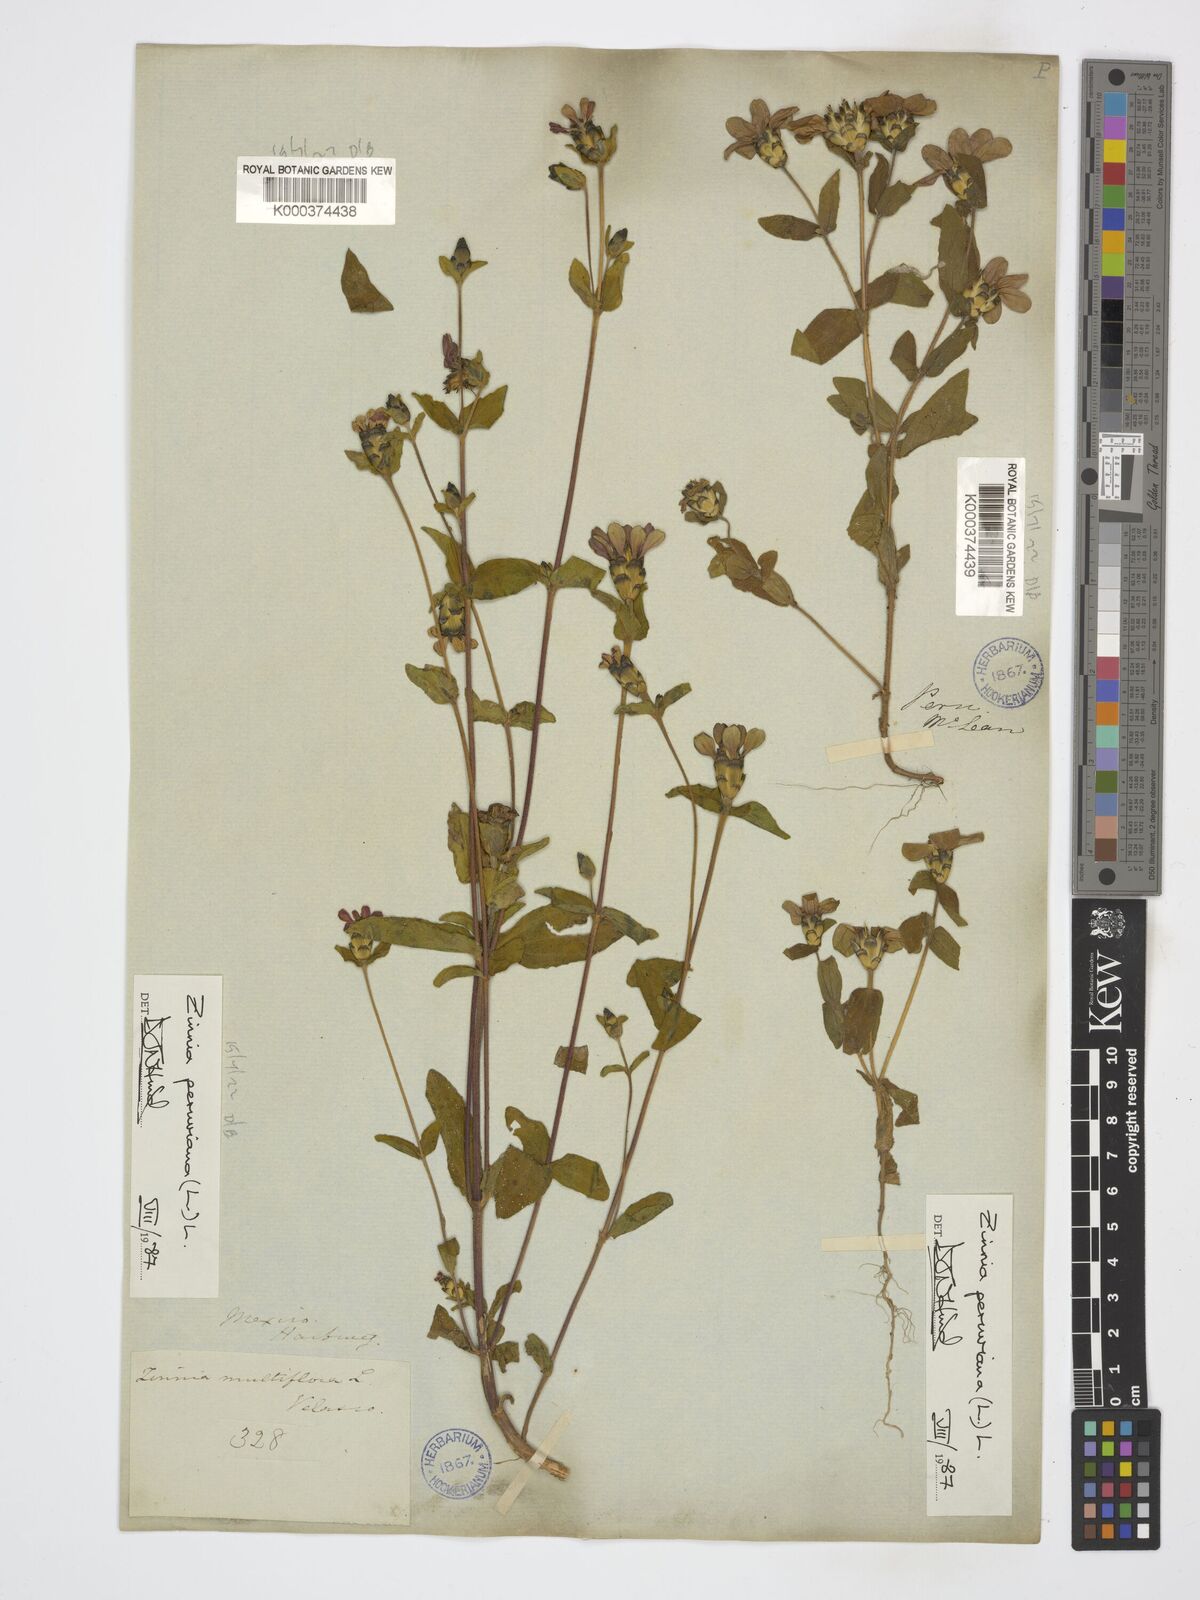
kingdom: Plantae
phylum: Tracheophyta
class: Magnoliopsida
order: Asterales
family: Asteraceae
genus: Zinnia
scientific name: Zinnia peruviana
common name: Peruvian zinnia
